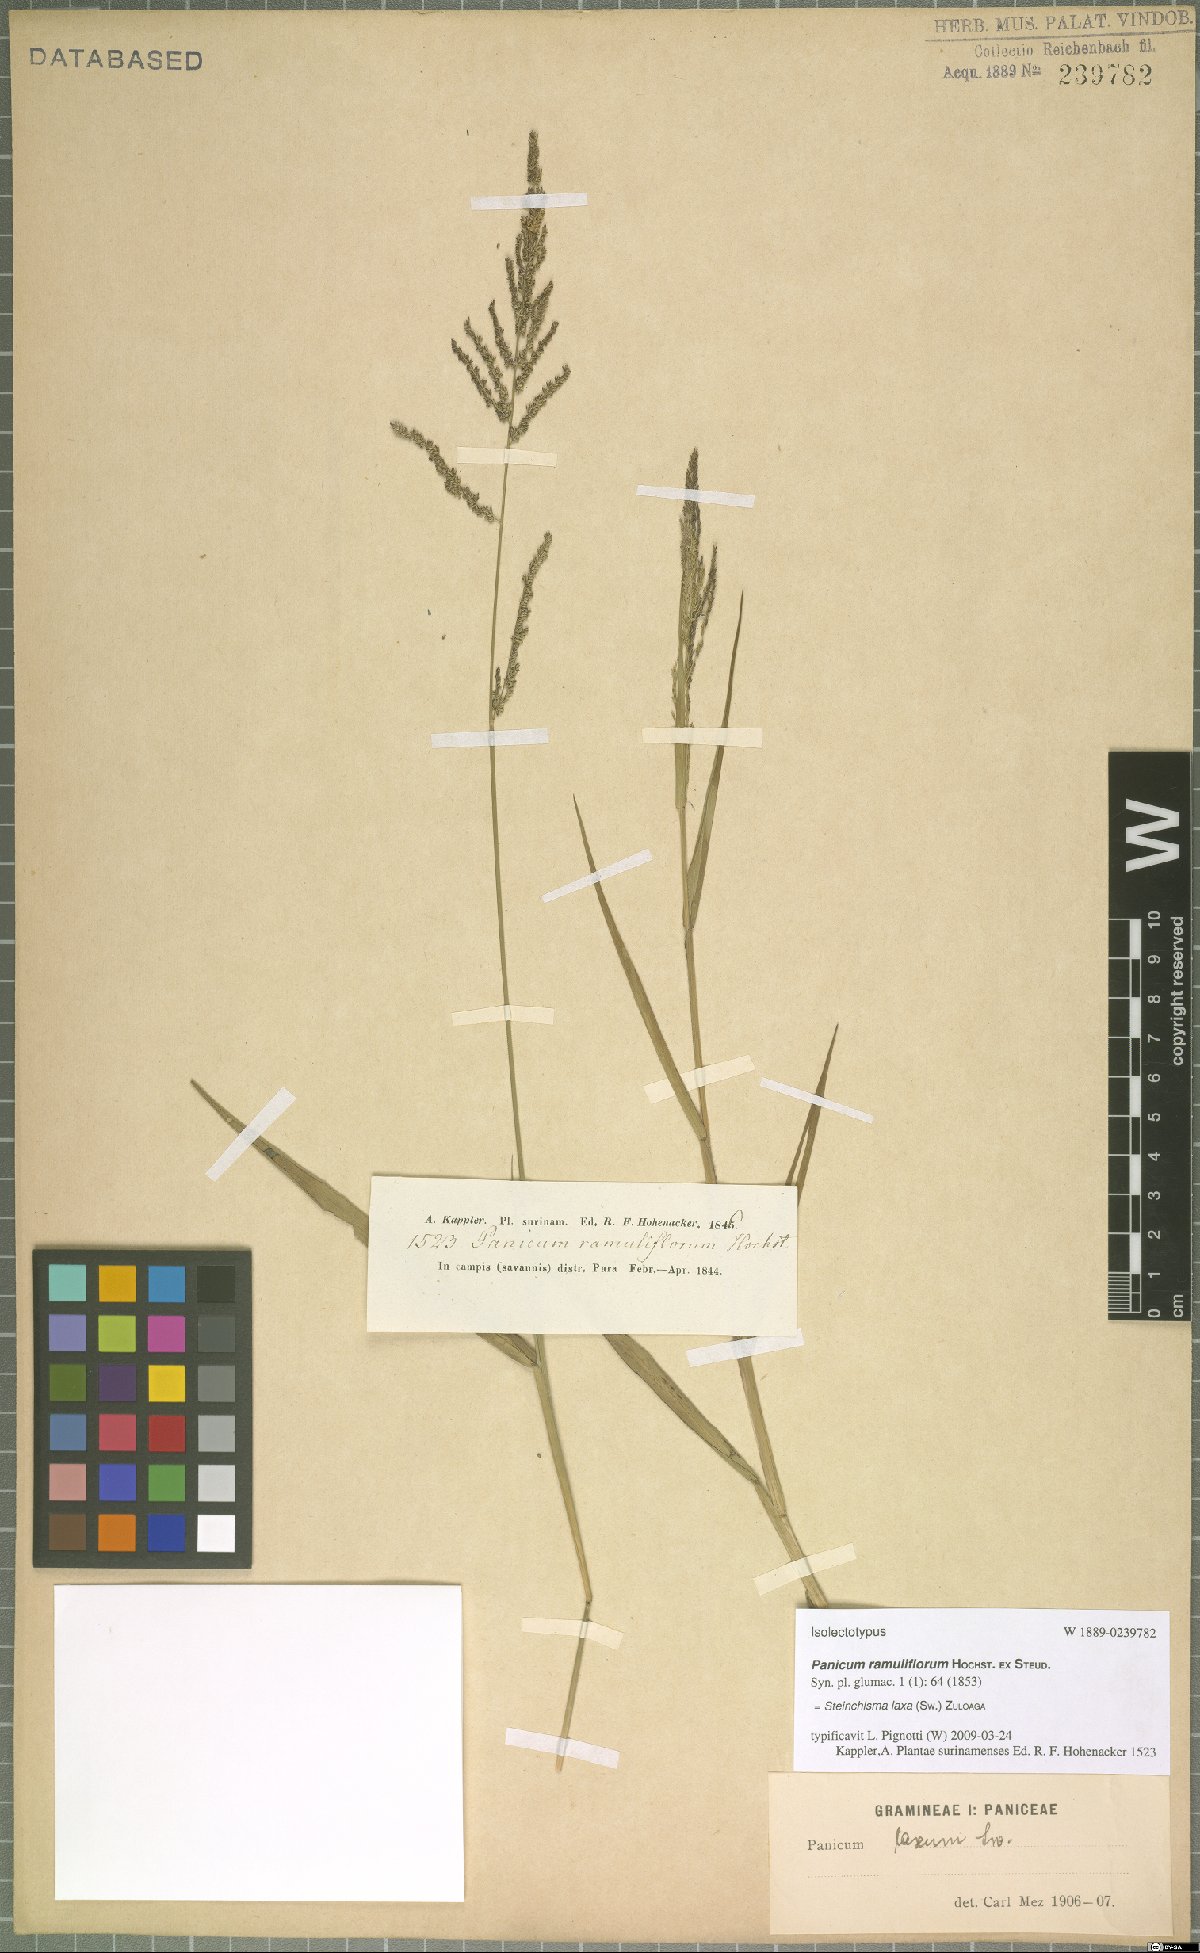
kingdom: Plantae
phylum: Tracheophyta
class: Liliopsida
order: Poales
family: Poaceae
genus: Steinchisma
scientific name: Steinchisma laxum
